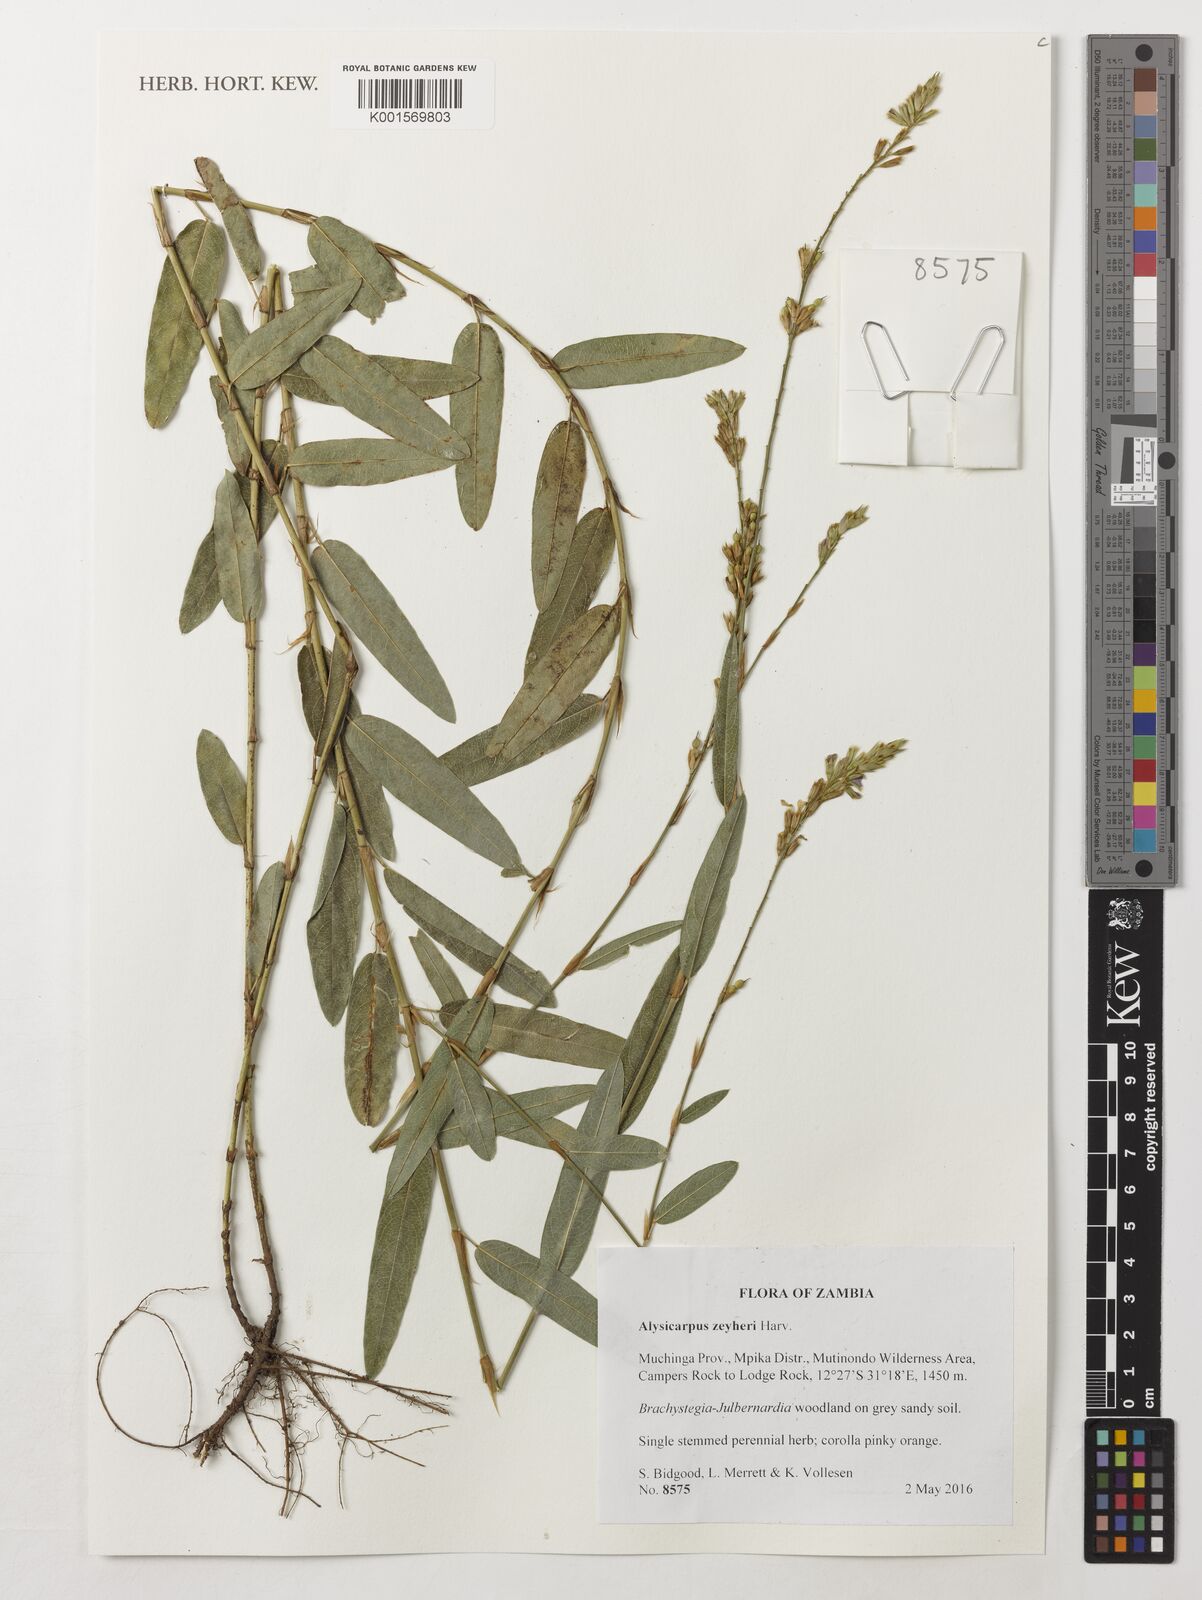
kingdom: Plantae
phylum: Tracheophyta
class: Magnoliopsida
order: Fabales
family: Fabaceae
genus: Alysicarpus
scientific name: Alysicarpus zeyheri
